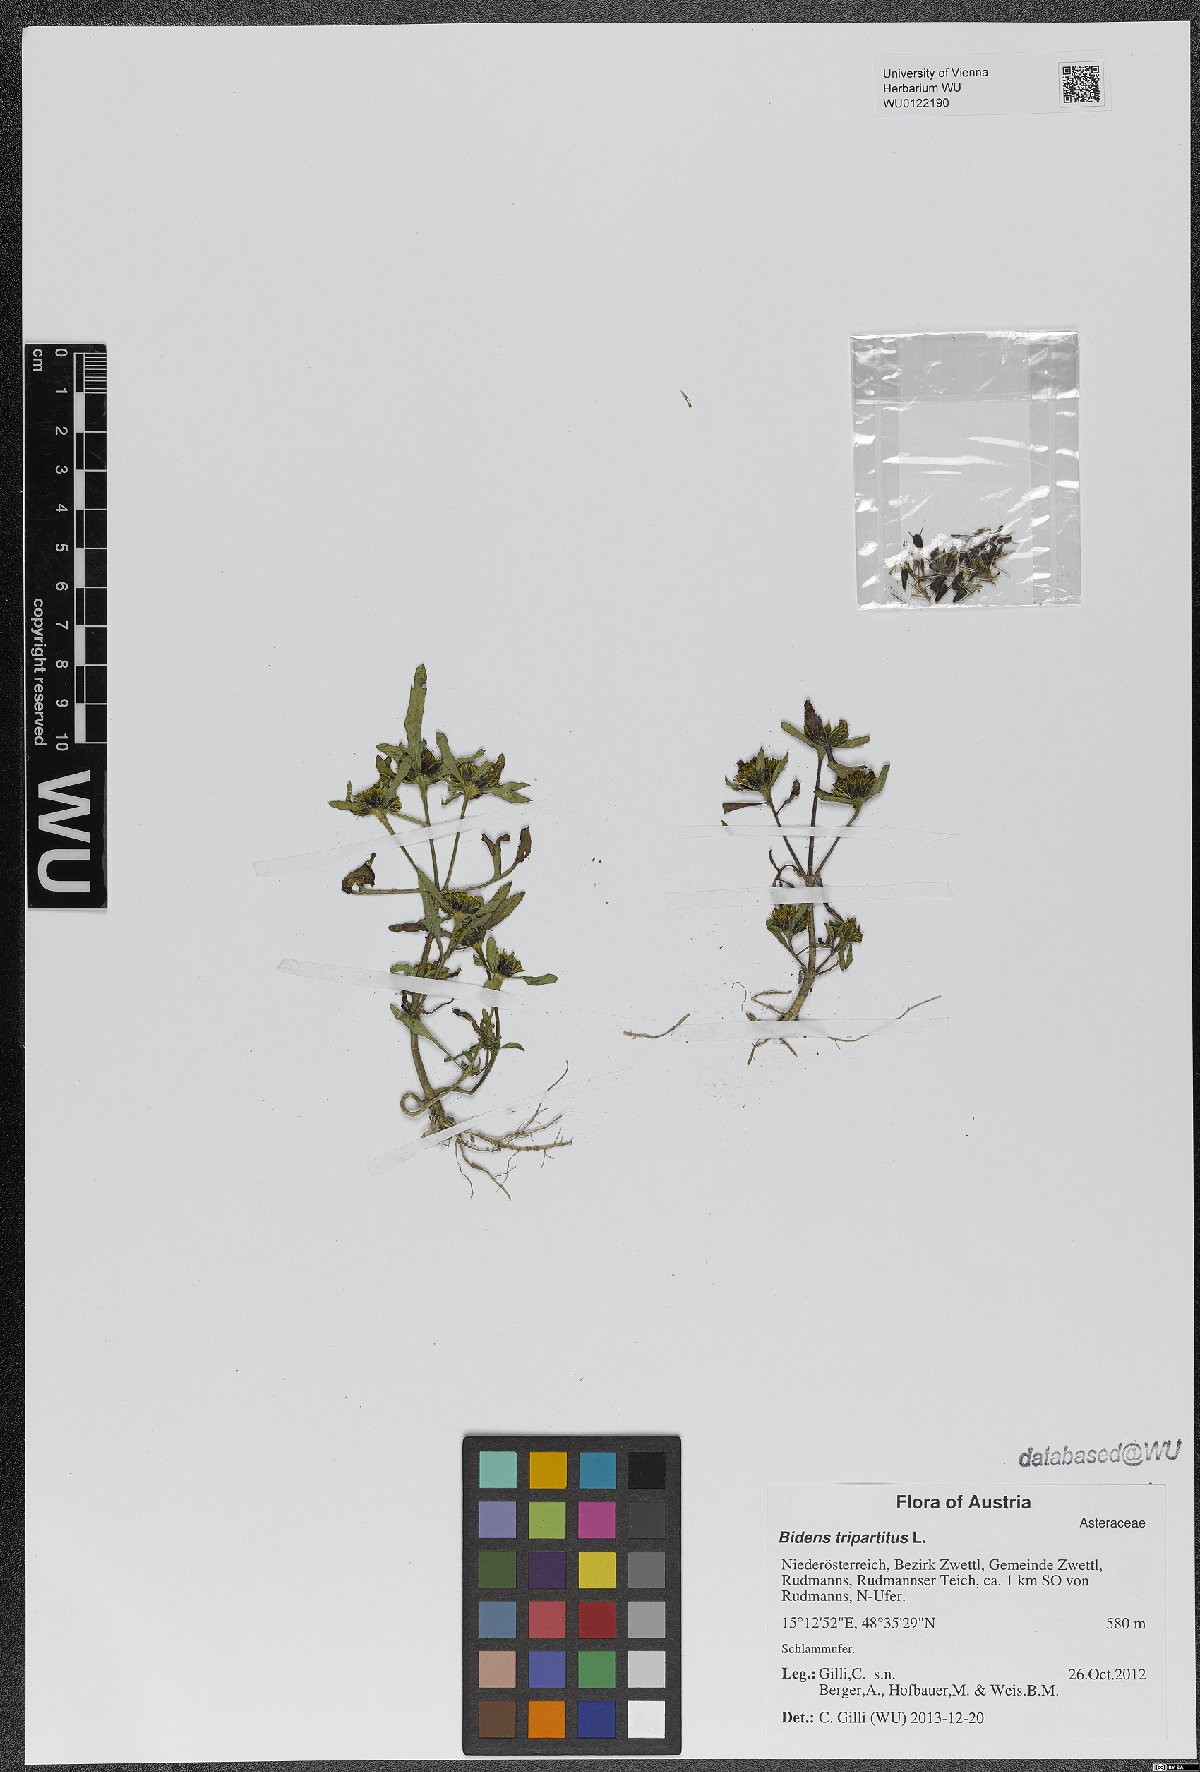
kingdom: Plantae
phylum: Tracheophyta
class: Magnoliopsida
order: Asterales
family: Asteraceae
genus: Bidens
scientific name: Bidens tripartita
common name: Trifid bur-marigold
